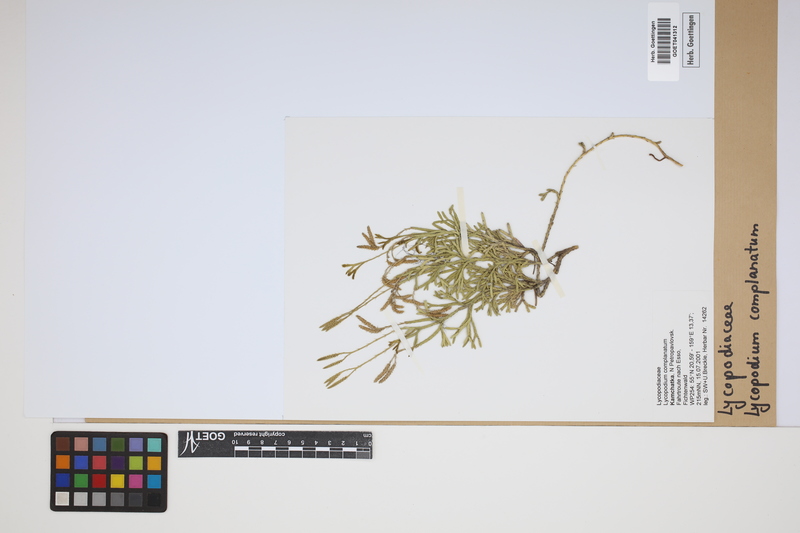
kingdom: Plantae
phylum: Tracheophyta
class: Lycopodiopsida
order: Lycopodiales
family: Lycopodiaceae
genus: Diphasiastrum
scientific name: Diphasiastrum complanatum
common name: Northern running-pine
